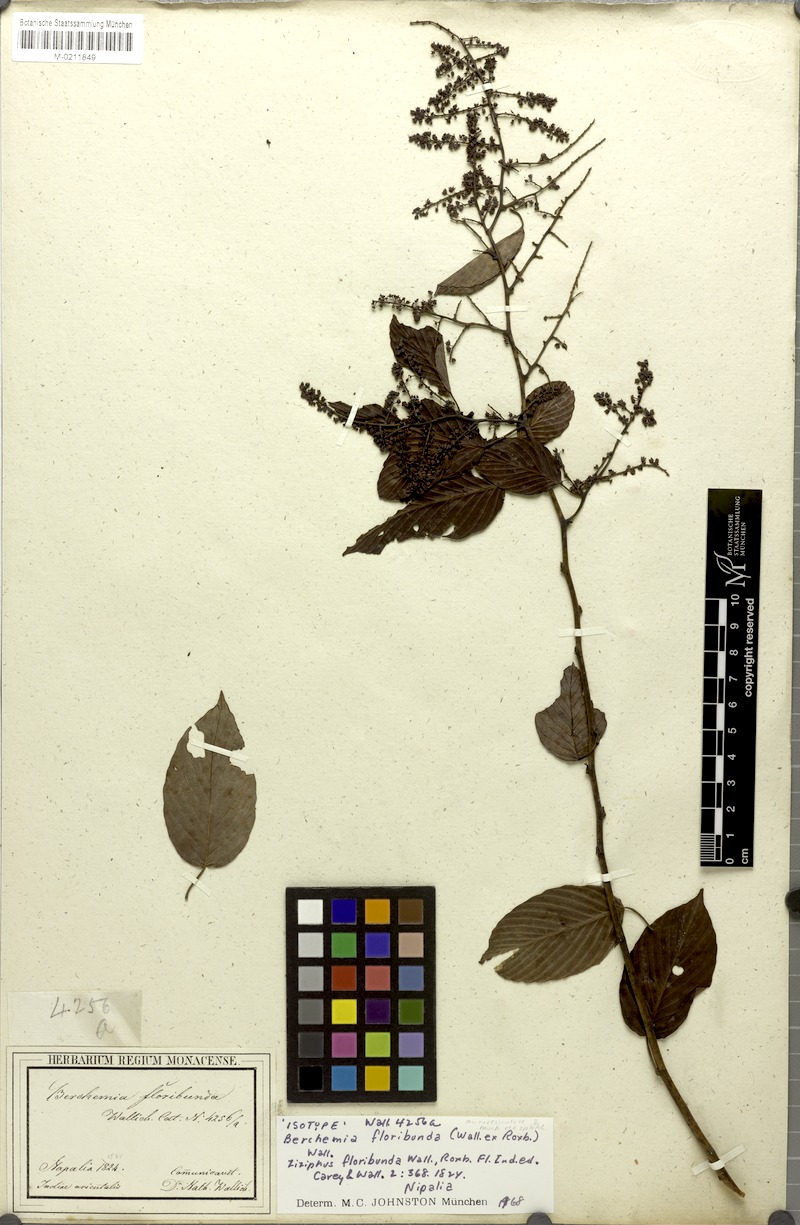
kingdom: Plantae
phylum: Tracheophyta
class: Magnoliopsida
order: Rosales
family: Rhamnaceae
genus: Berchemia
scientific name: Berchemia floribunda
